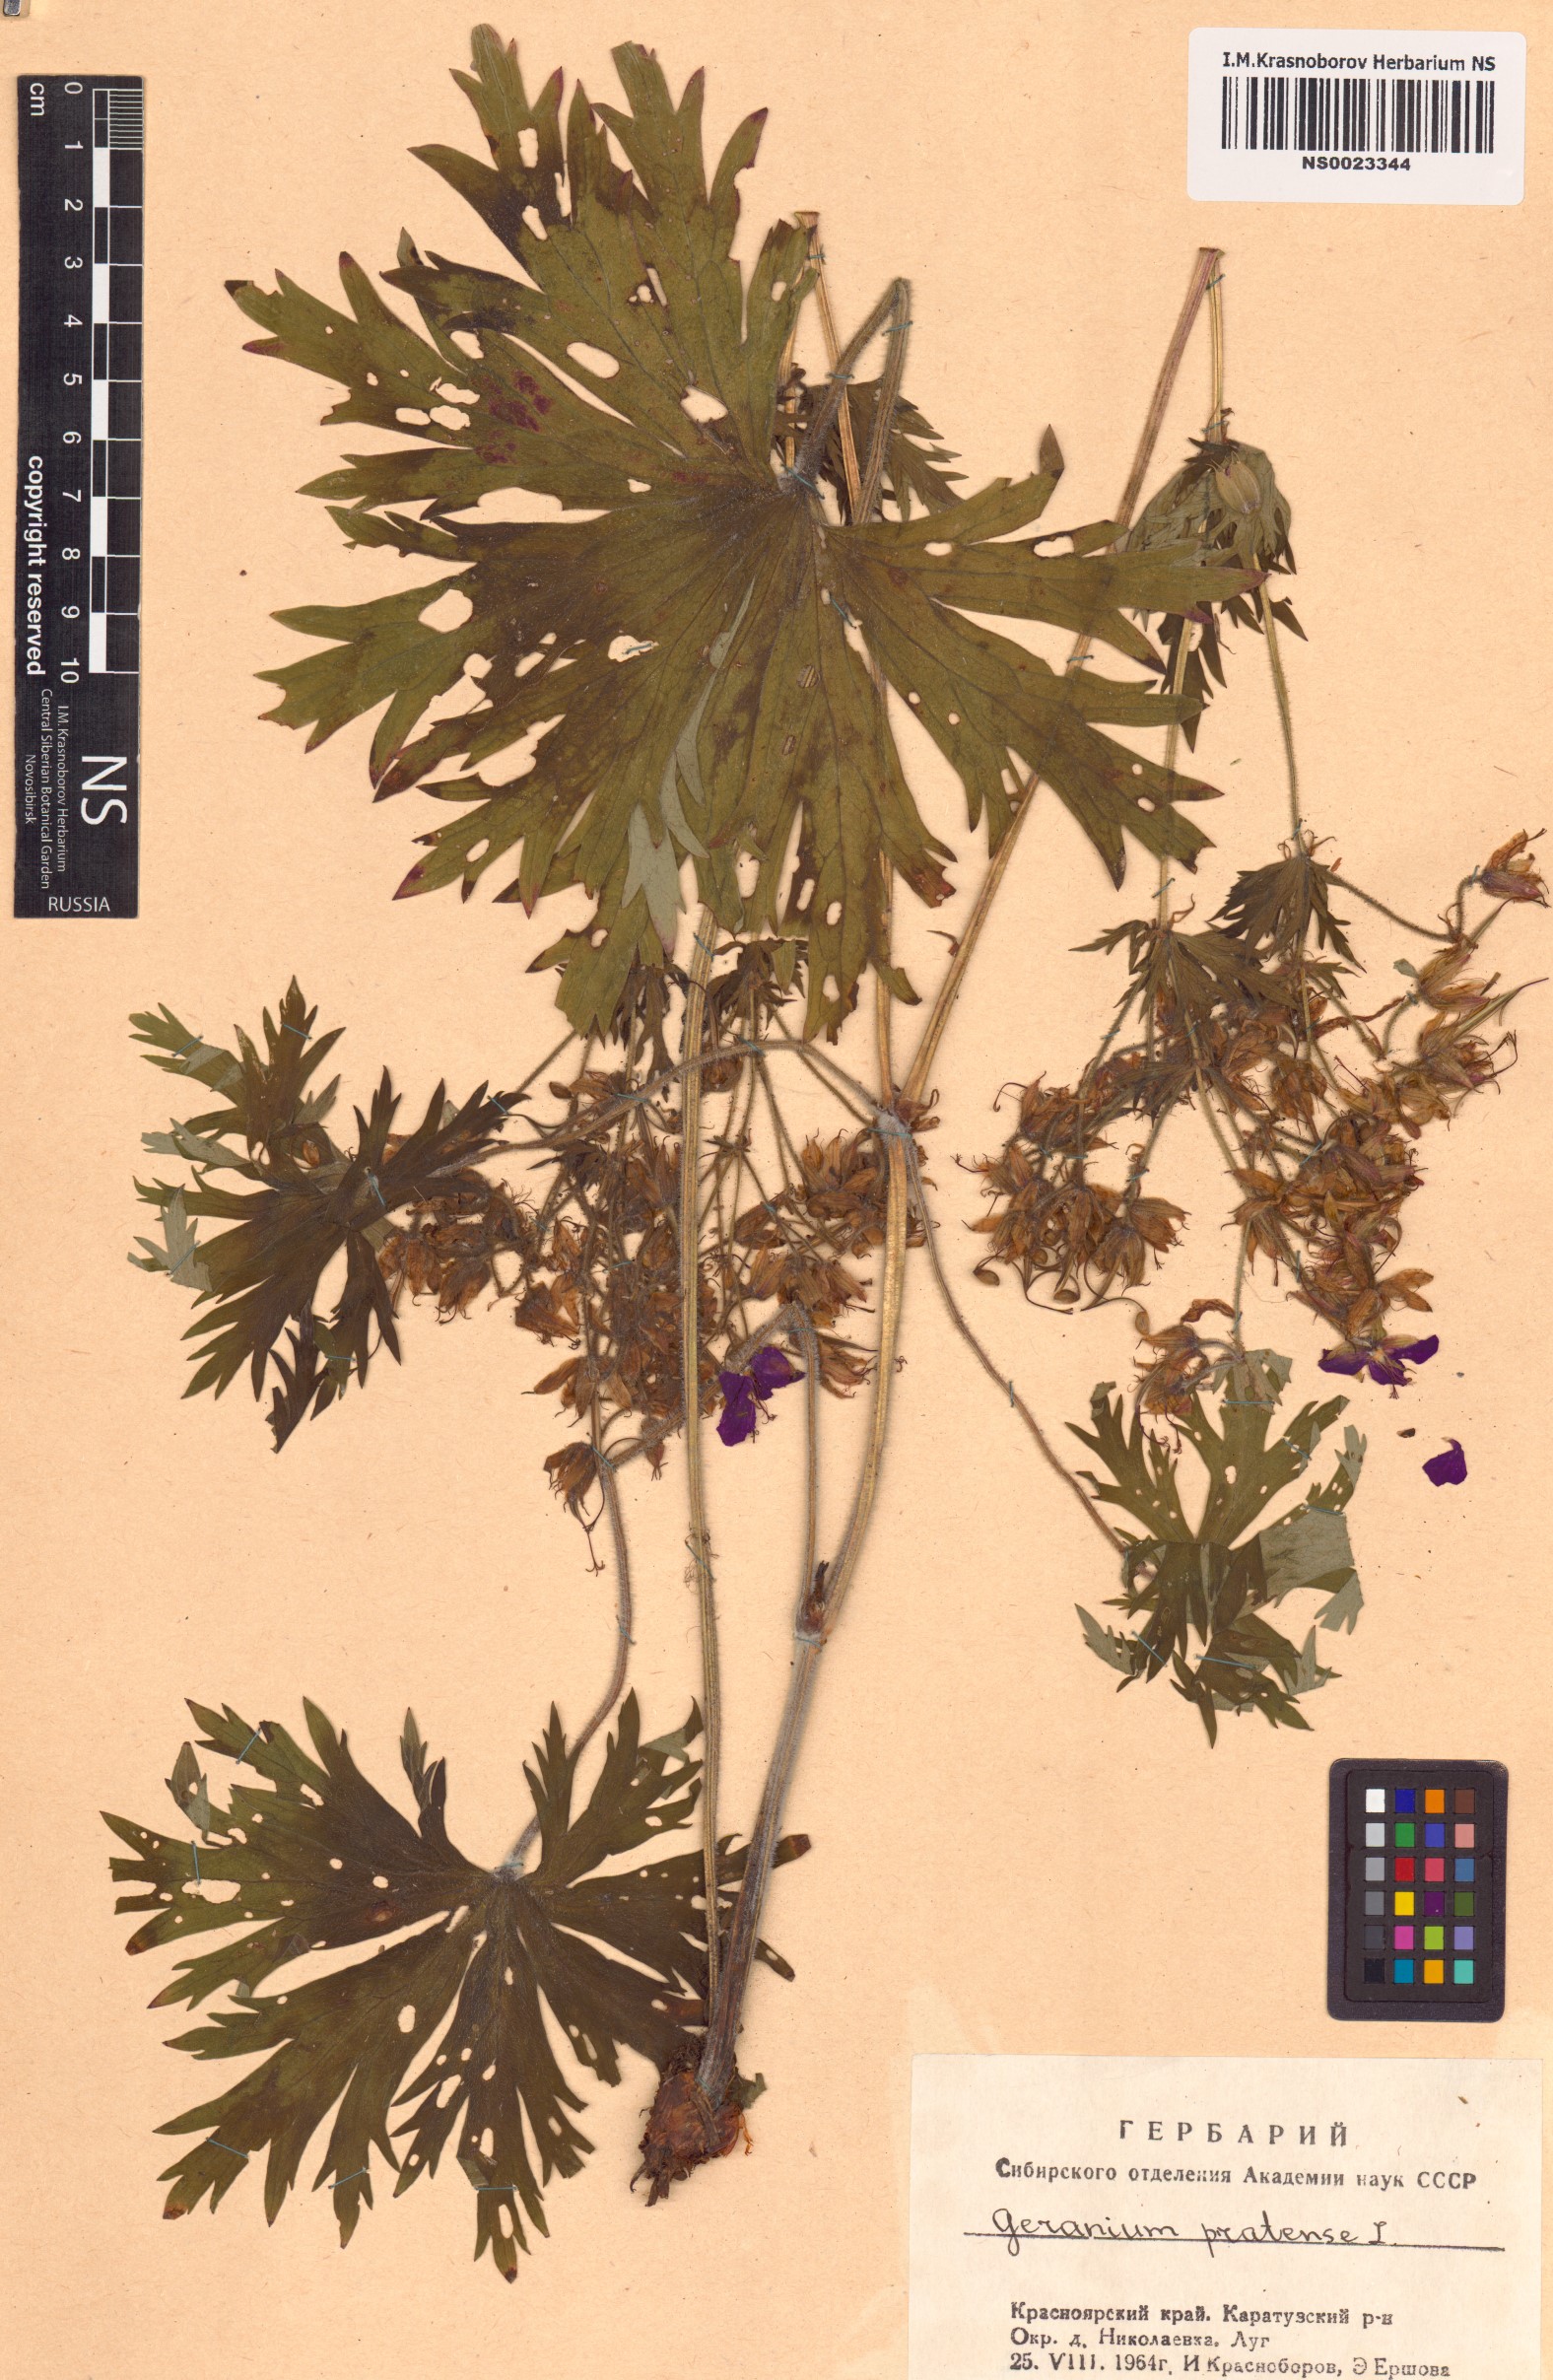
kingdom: Plantae
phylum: Tracheophyta
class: Magnoliopsida
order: Geraniales
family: Geraniaceae
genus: Geranium
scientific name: Geranium pratense
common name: Meadow crane's-bill
